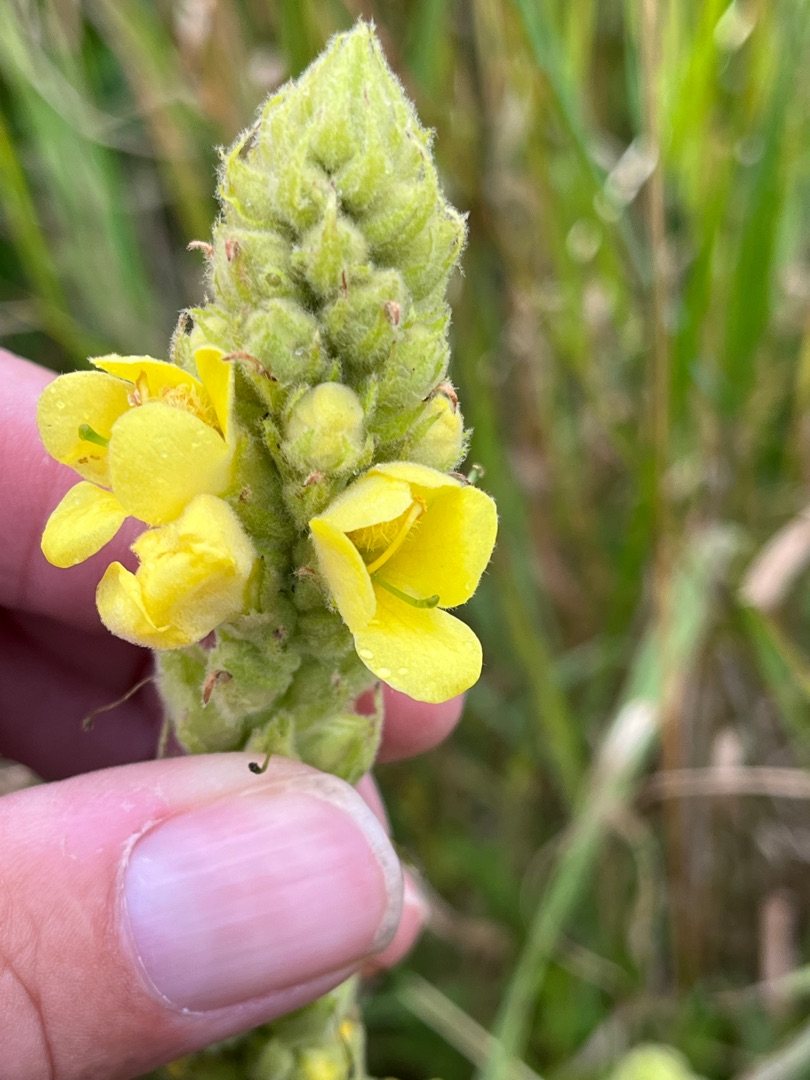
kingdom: Plantae
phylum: Tracheophyta
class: Magnoliopsida
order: Lamiales
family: Scrophulariaceae
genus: Verbascum
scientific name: Verbascum thapsus
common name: Filtbladet kongelys
